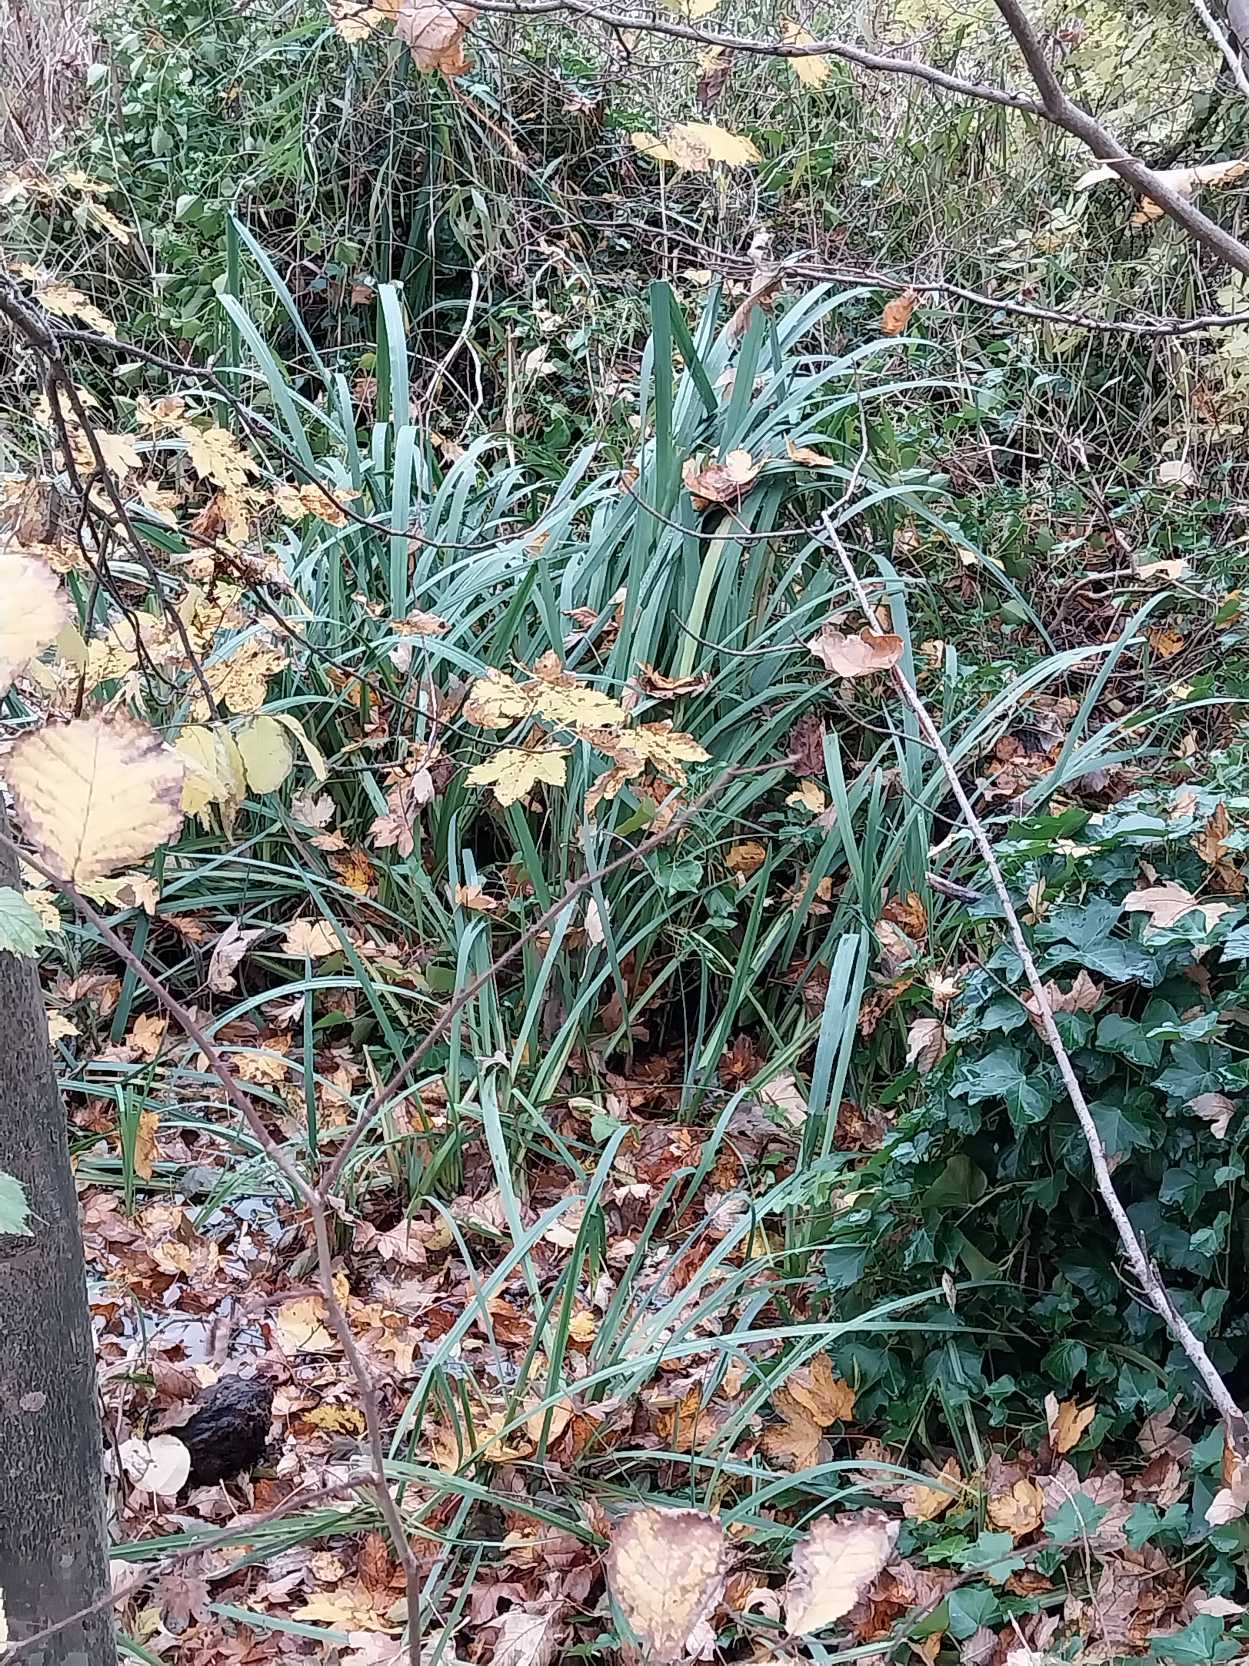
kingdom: Plantae
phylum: Tracheophyta
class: Liliopsida
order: Asparagales
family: Iridaceae
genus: Iris
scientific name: Iris pseudacorus
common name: Gul iris
